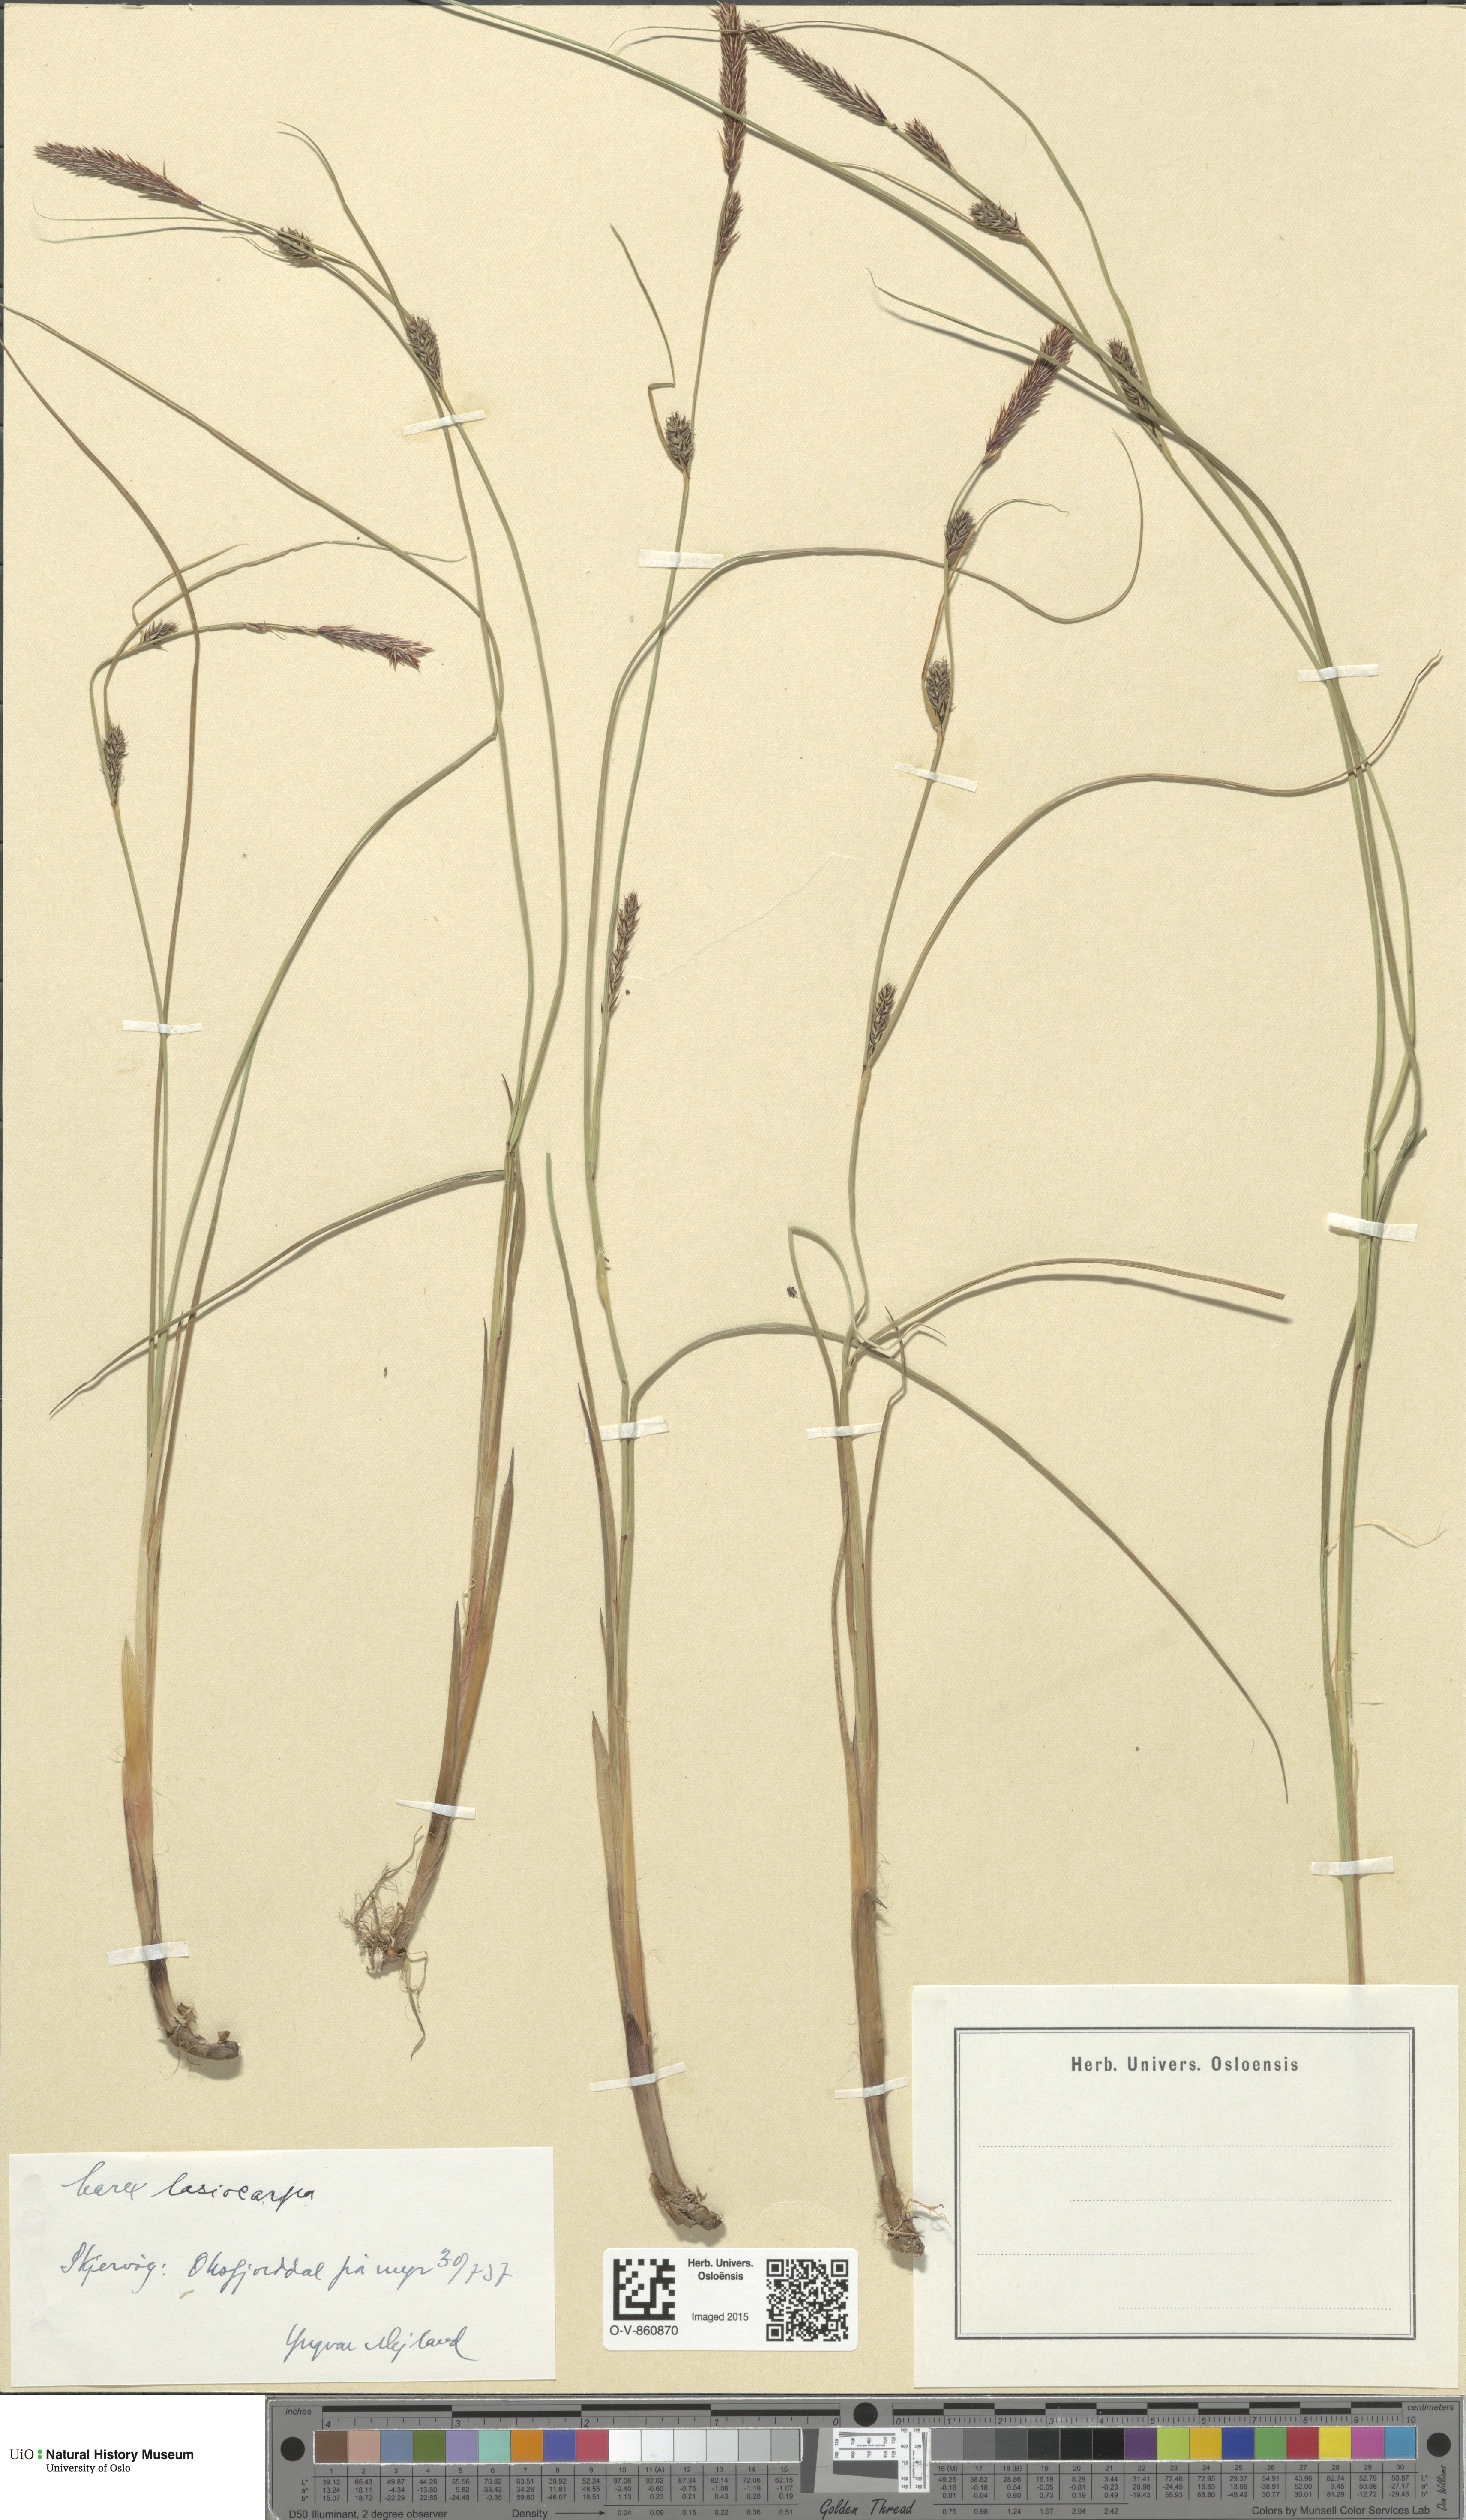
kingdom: Plantae
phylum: Tracheophyta
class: Liliopsida
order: Poales
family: Cyperaceae
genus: Carex
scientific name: Carex lasiocarpa
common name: Slender sedge
